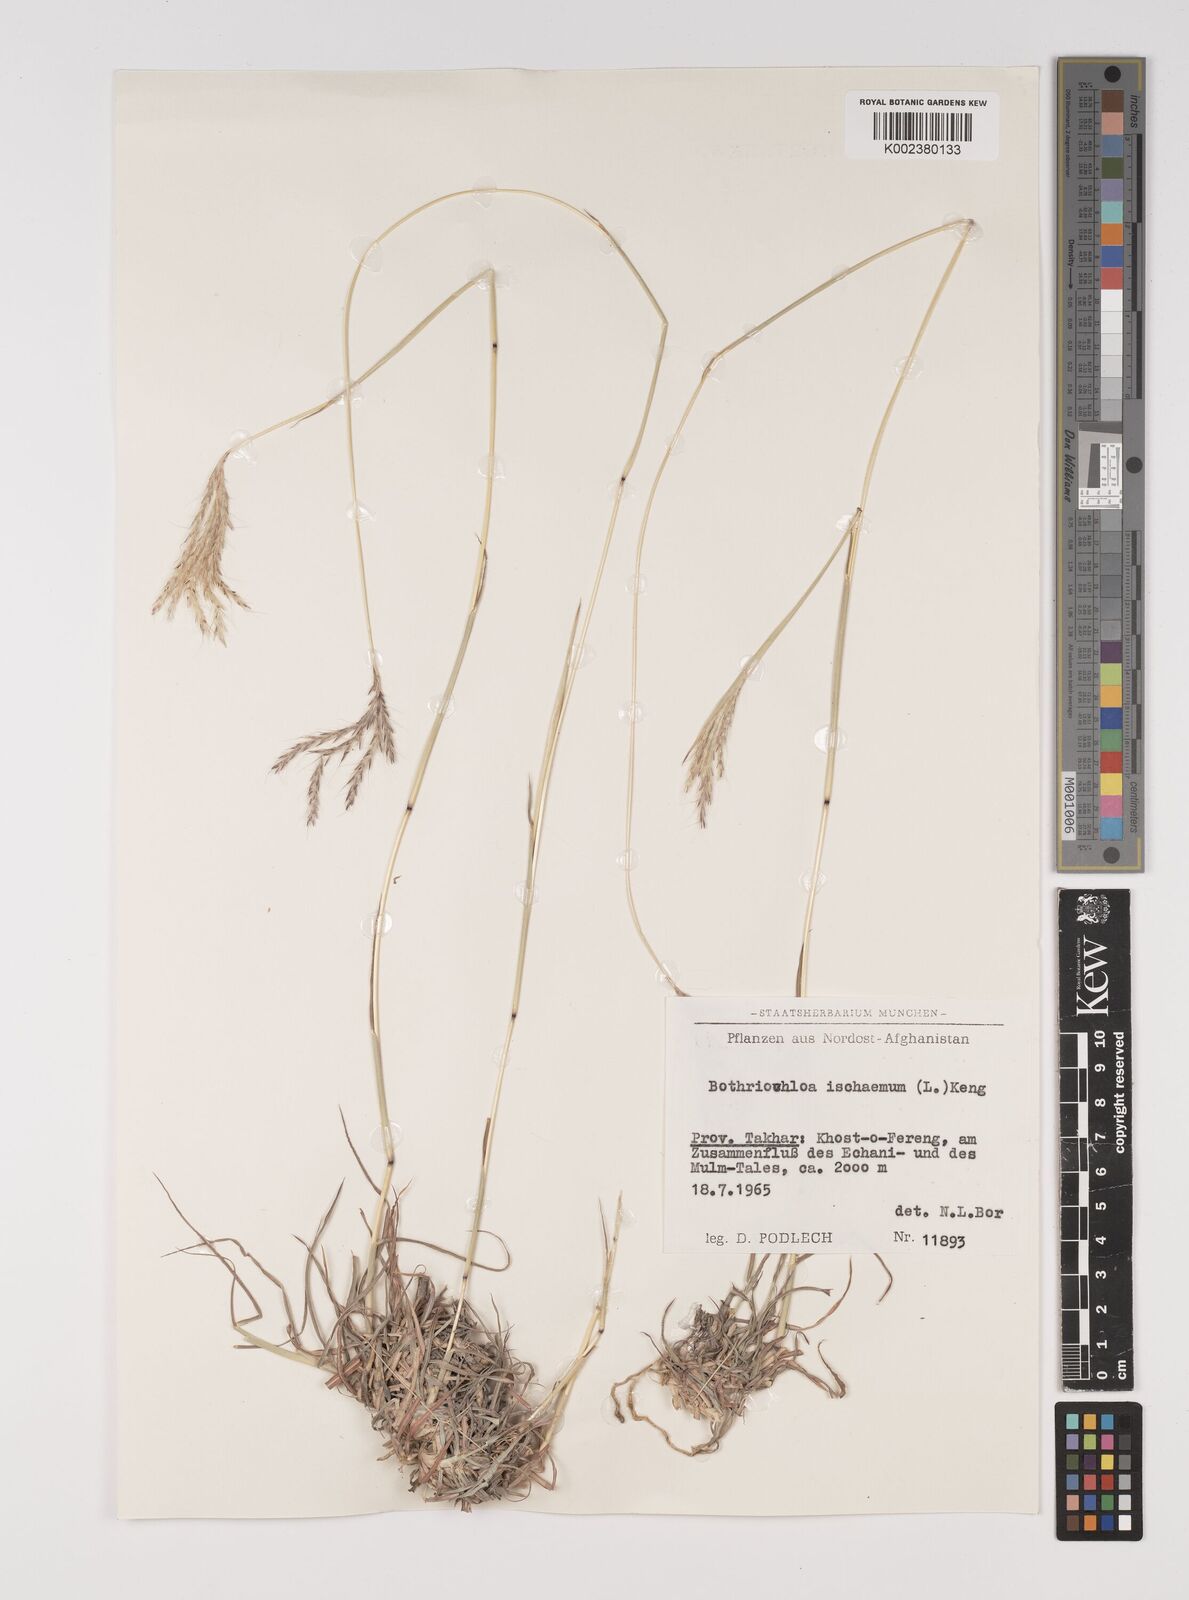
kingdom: Plantae
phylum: Tracheophyta
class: Liliopsida
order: Poales
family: Poaceae
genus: Bothriochloa
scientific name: Bothriochloa ischaemum
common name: Yellow bluestem
